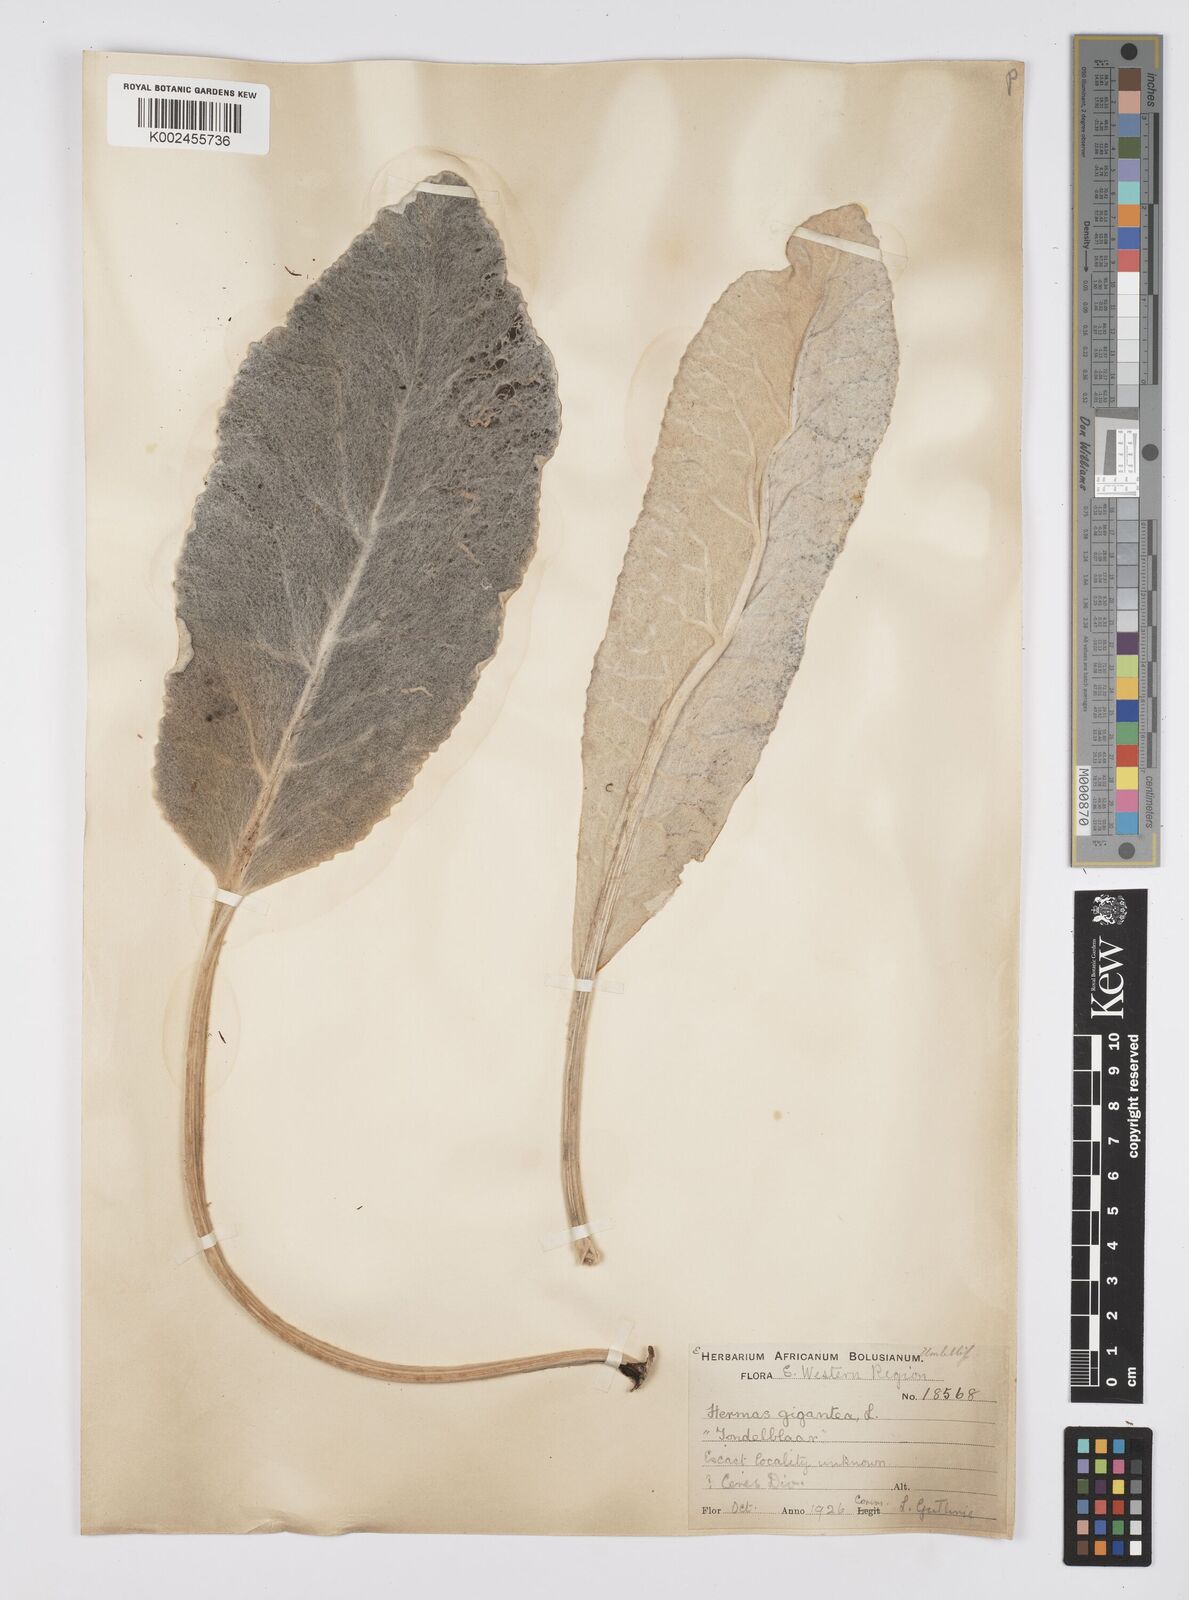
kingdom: Plantae
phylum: Tracheophyta
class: Magnoliopsida
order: Apiales
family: Apiaceae
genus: Hermas
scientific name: Hermas gigantea
